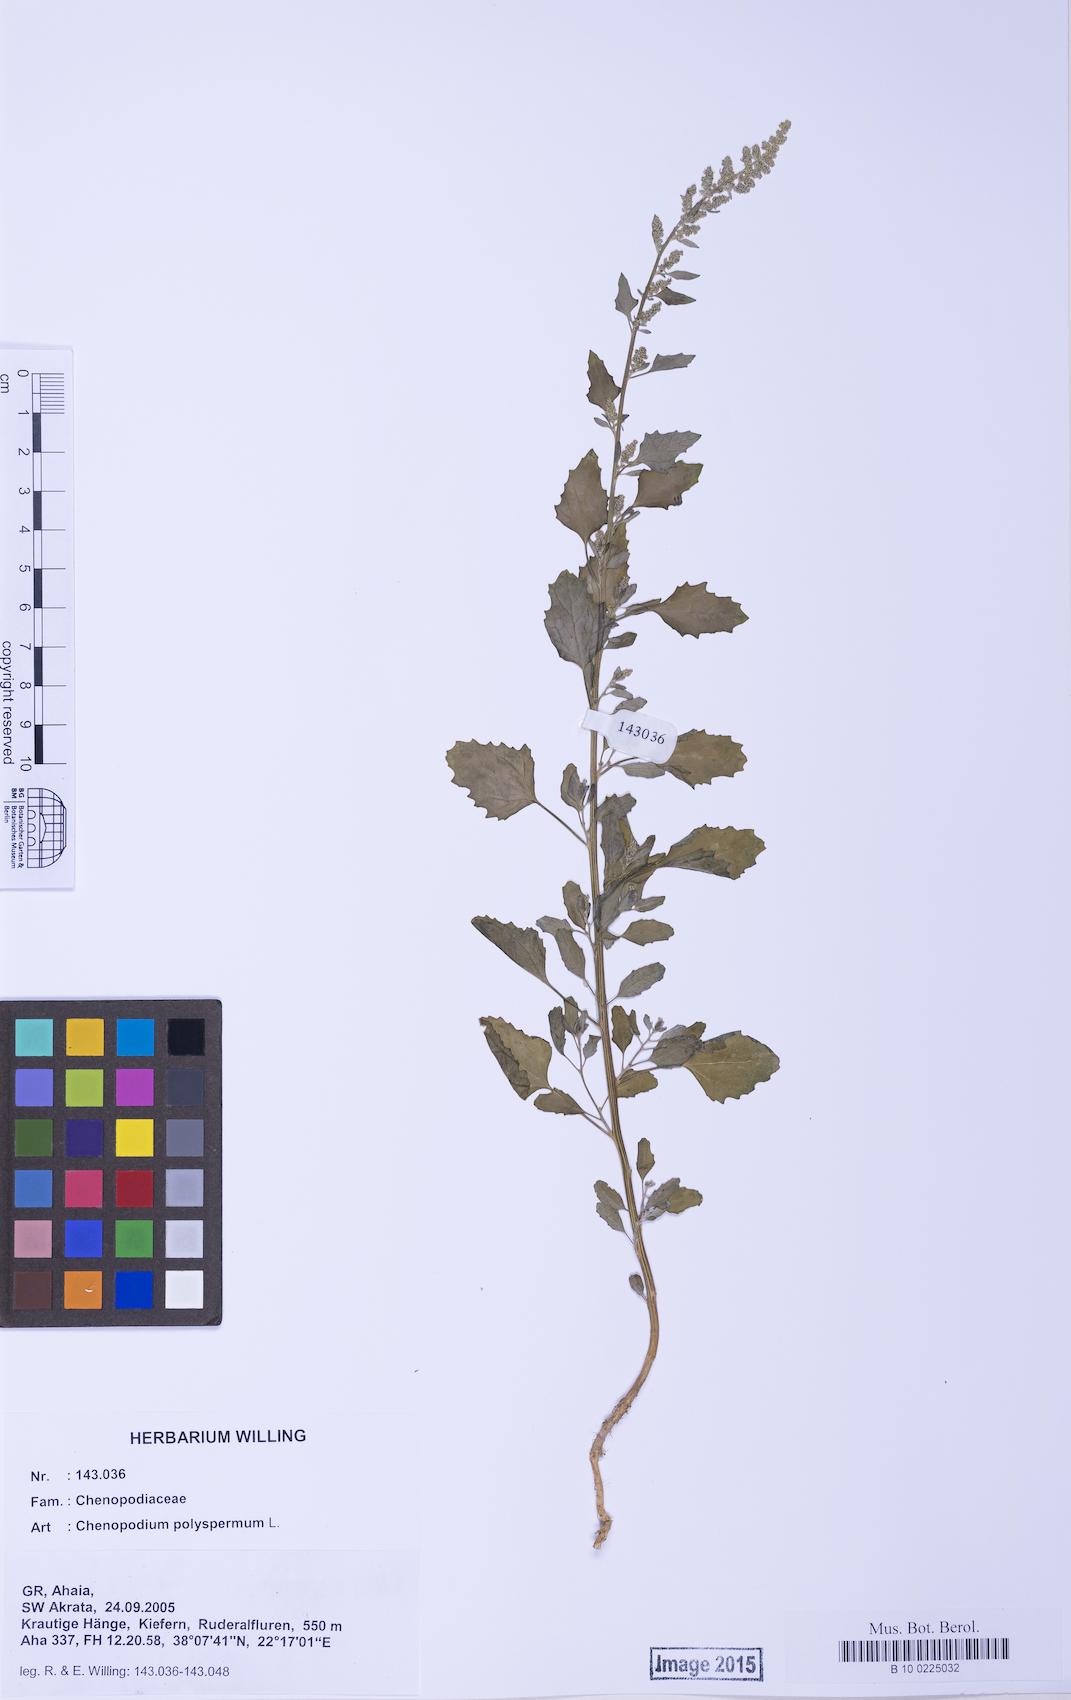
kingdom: Plantae
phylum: Tracheophyta
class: Magnoliopsida
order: Caryophyllales
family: Amaranthaceae
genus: Chenopodium
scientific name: Chenopodium betaceum
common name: Striped goosefoot
